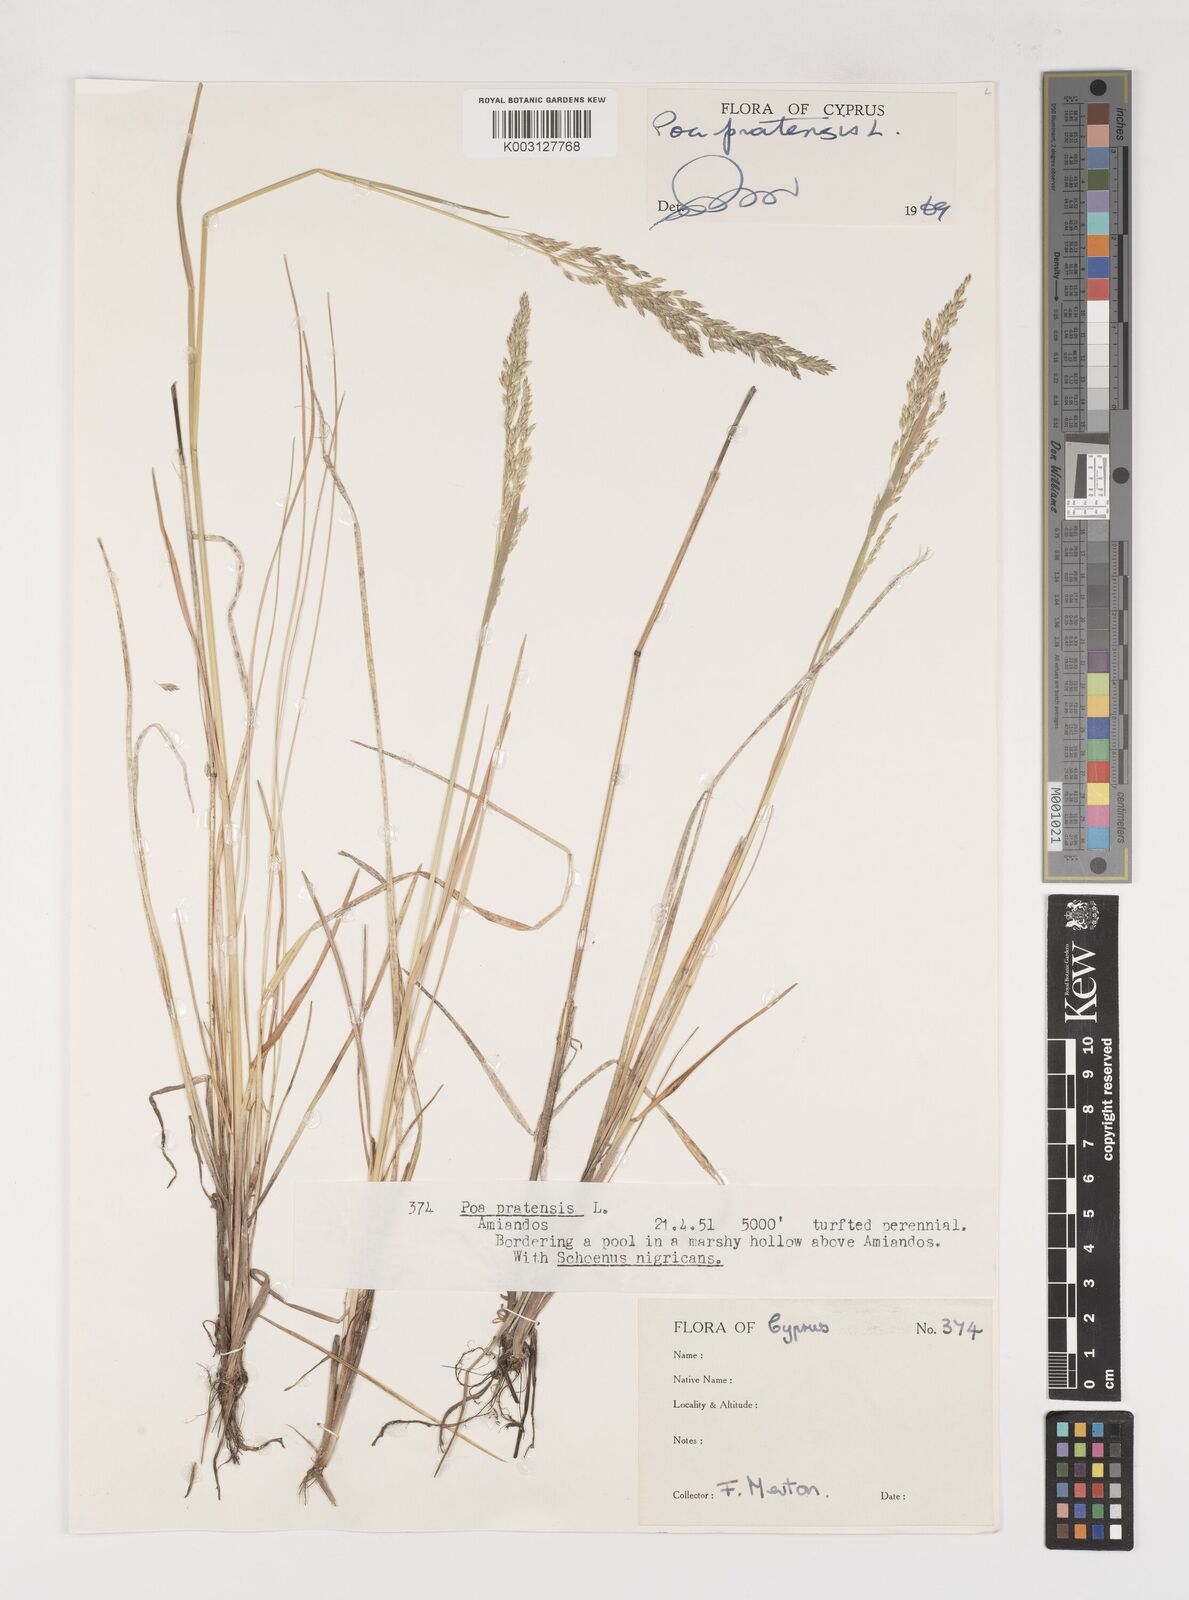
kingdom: Plantae
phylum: Tracheophyta
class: Liliopsida
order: Poales
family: Poaceae
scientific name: Poaceae
